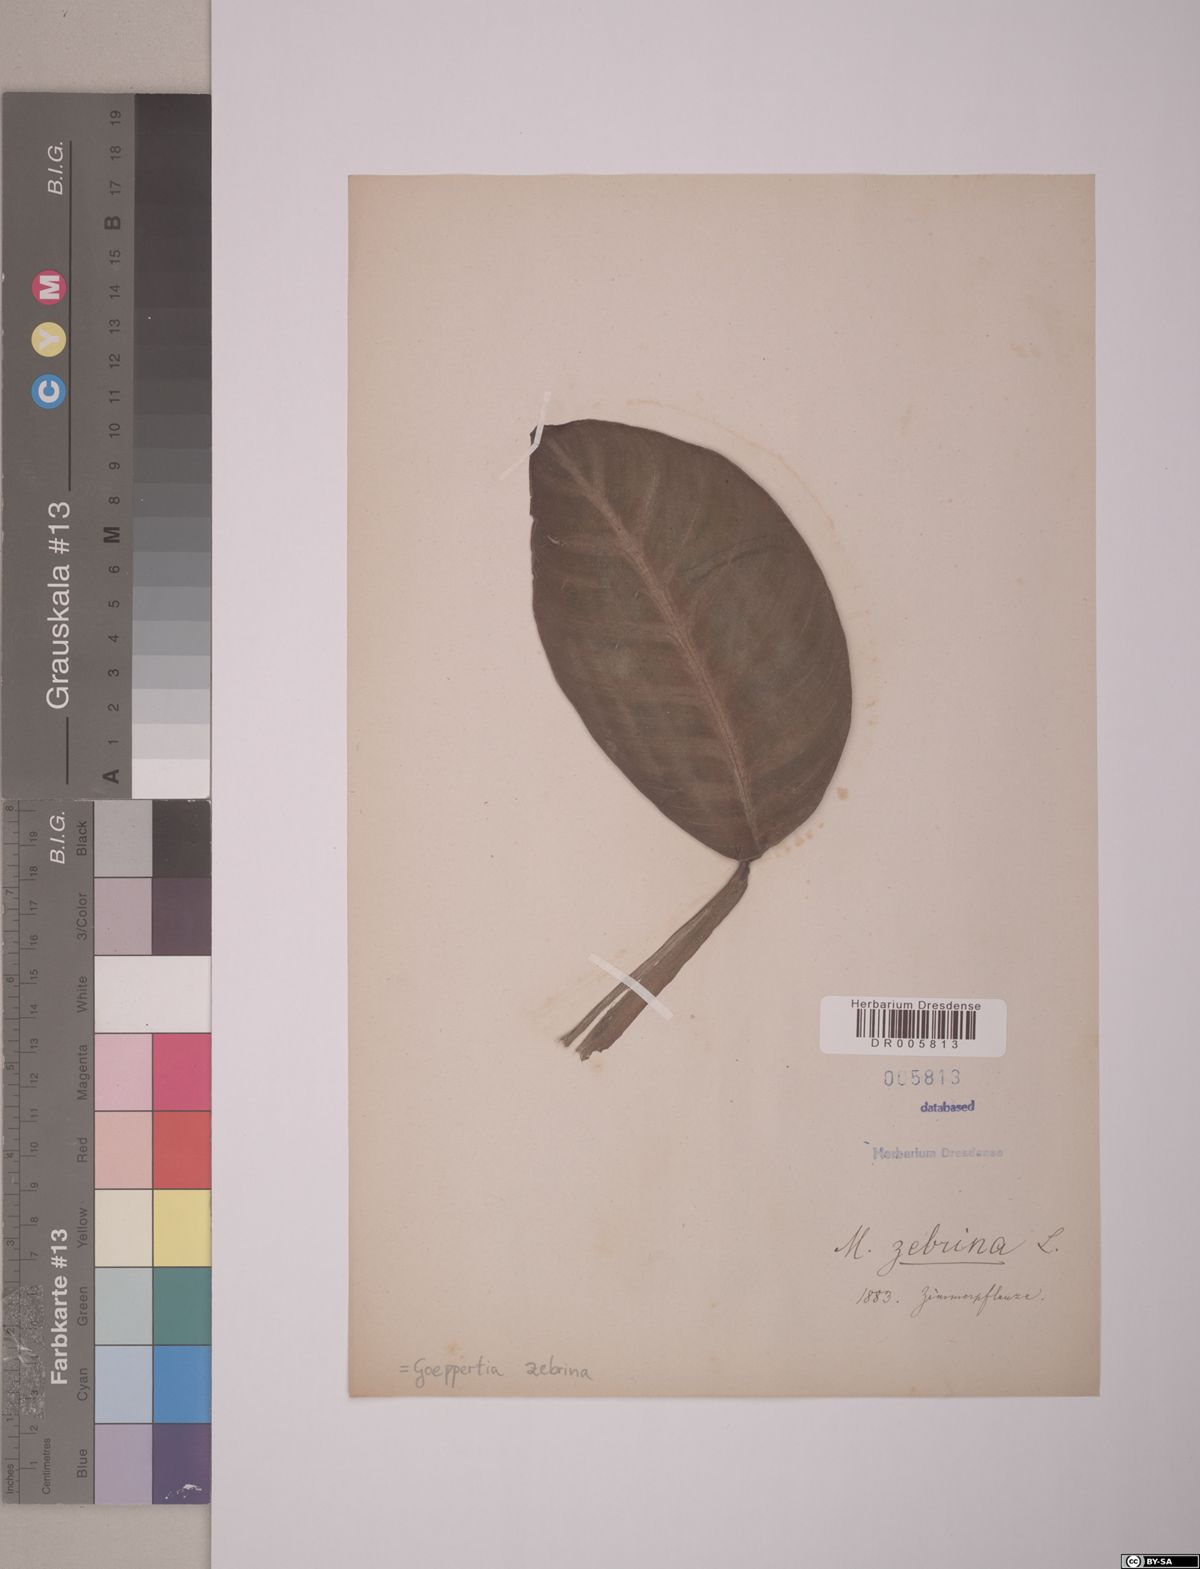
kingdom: Plantae
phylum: Tracheophyta
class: Liliopsida
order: Zingiberales
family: Marantaceae
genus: Goeppertia
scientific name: Goeppertia zebrina
